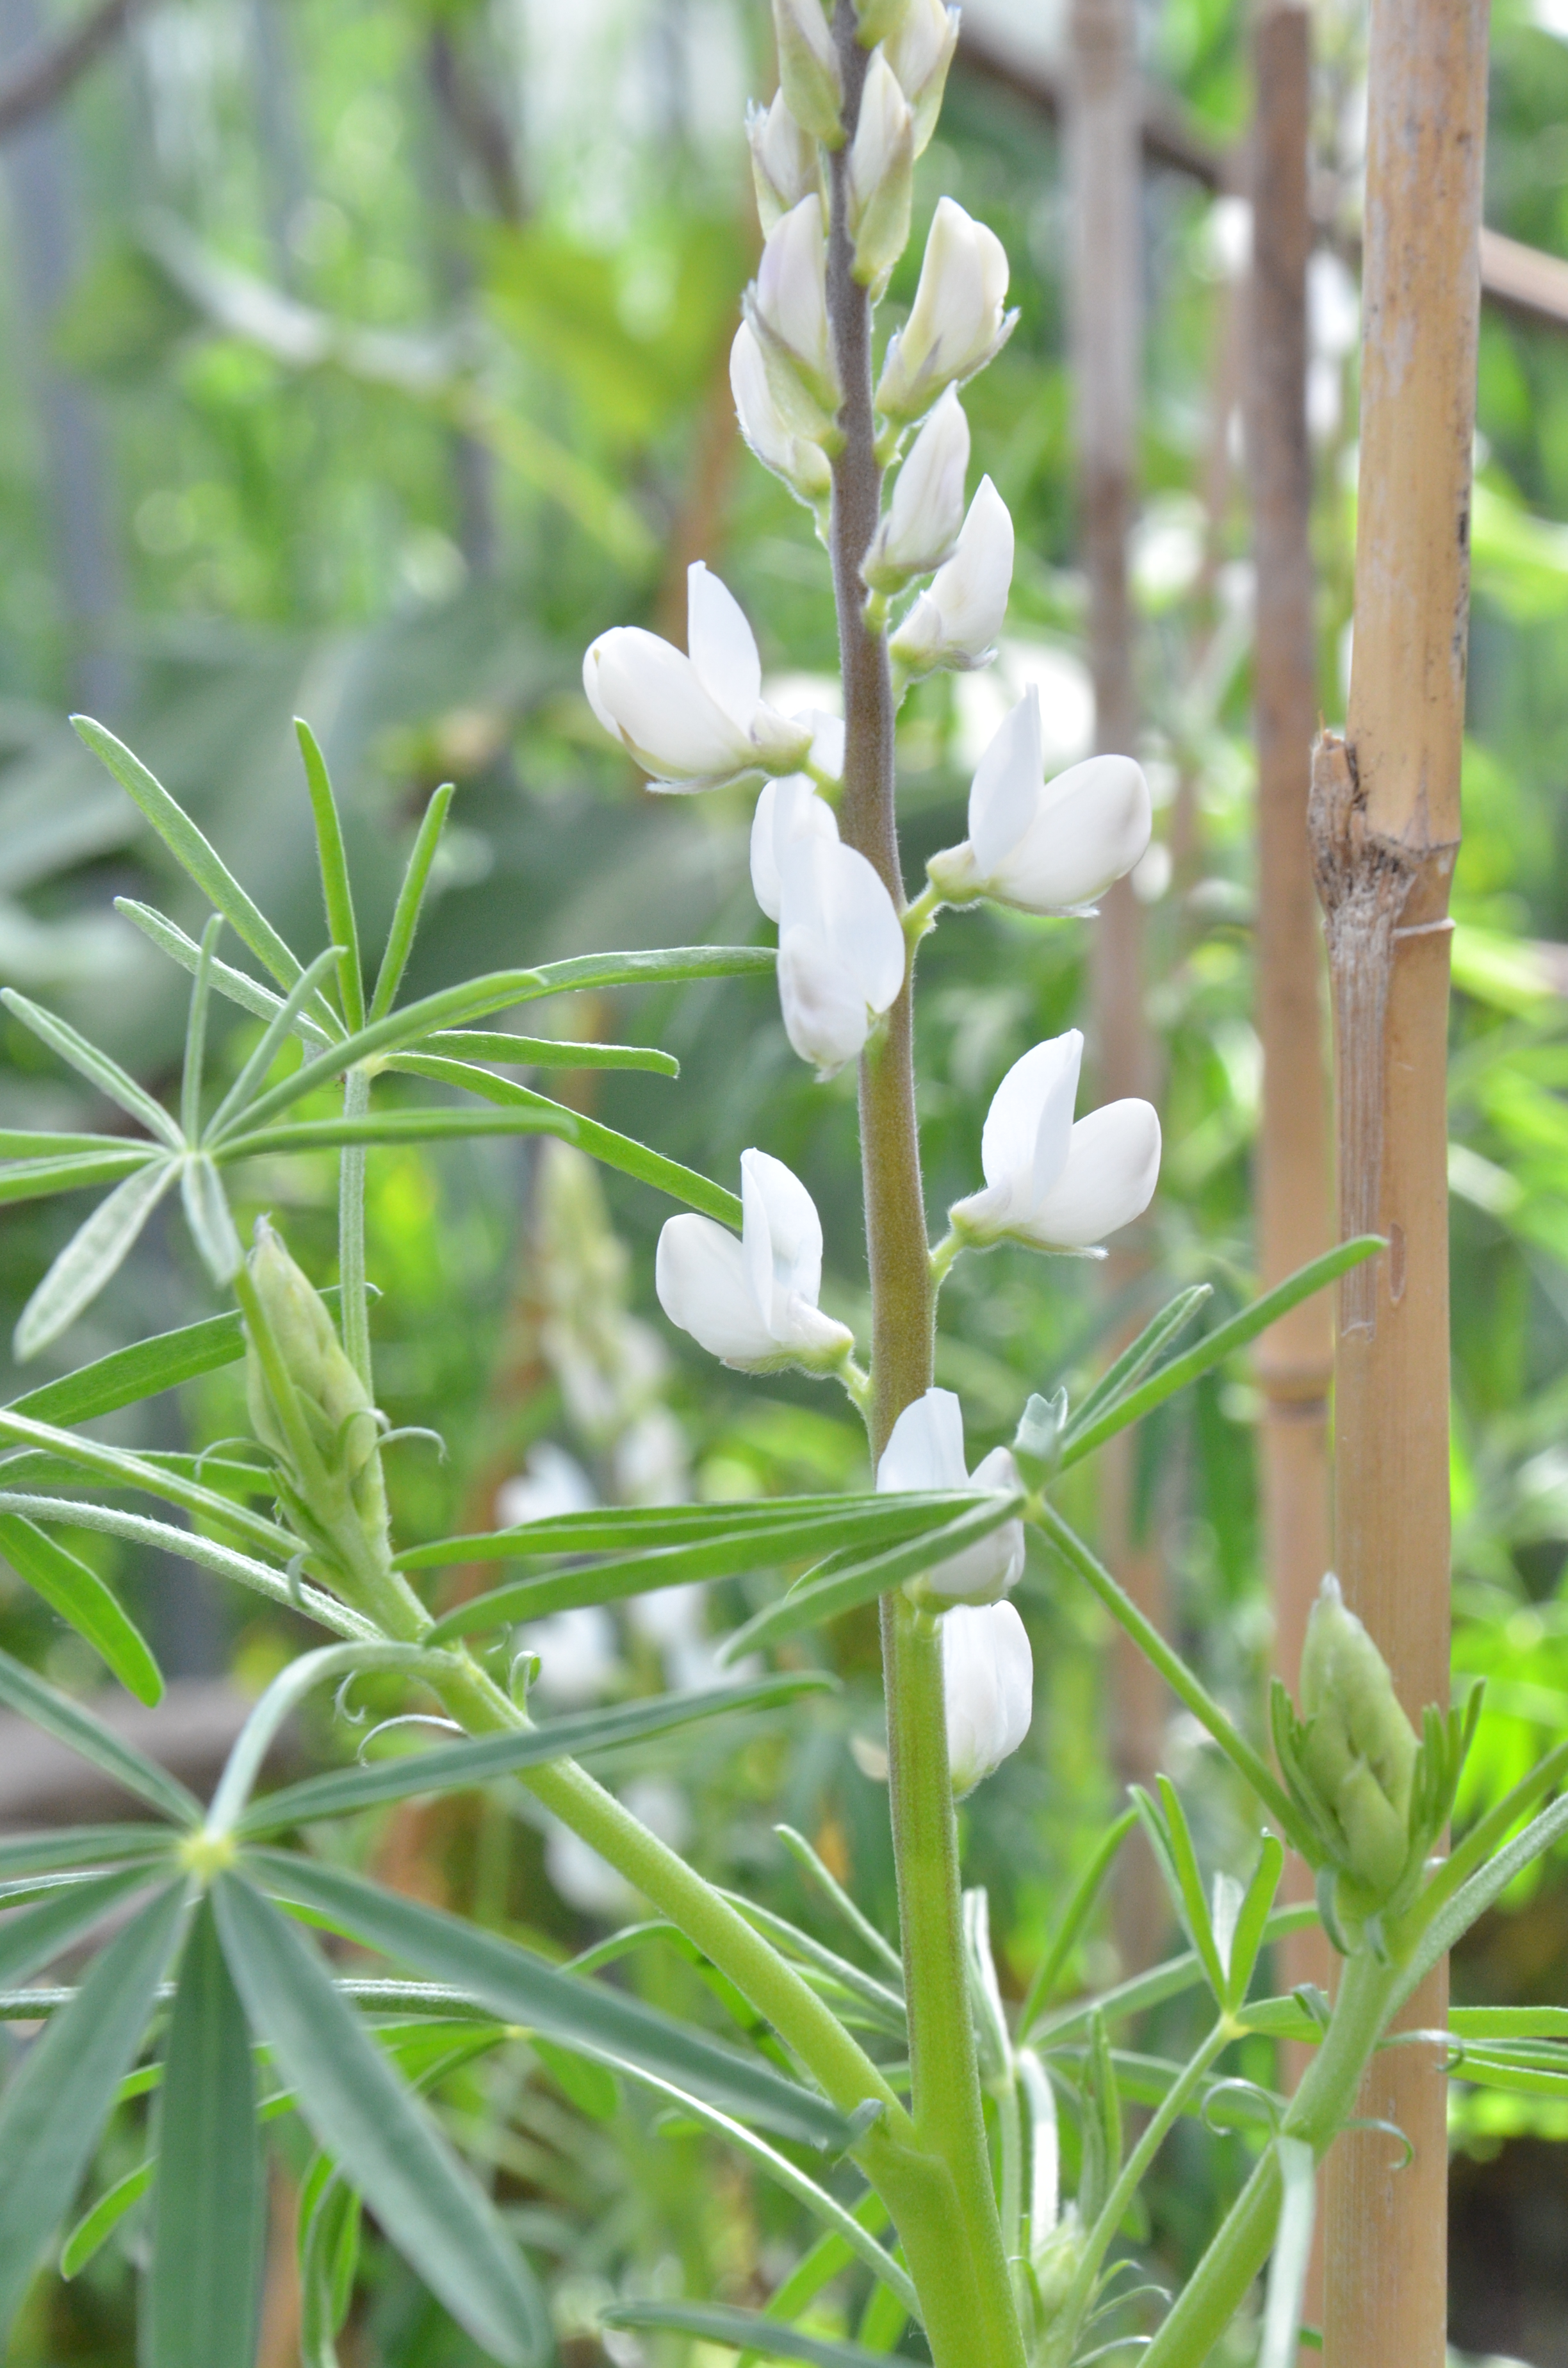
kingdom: Plantae
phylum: Tracheophyta
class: Magnoliopsida
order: Fabales
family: Fabaceae
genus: Lupinus
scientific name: Lupinus albus
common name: White lupin
